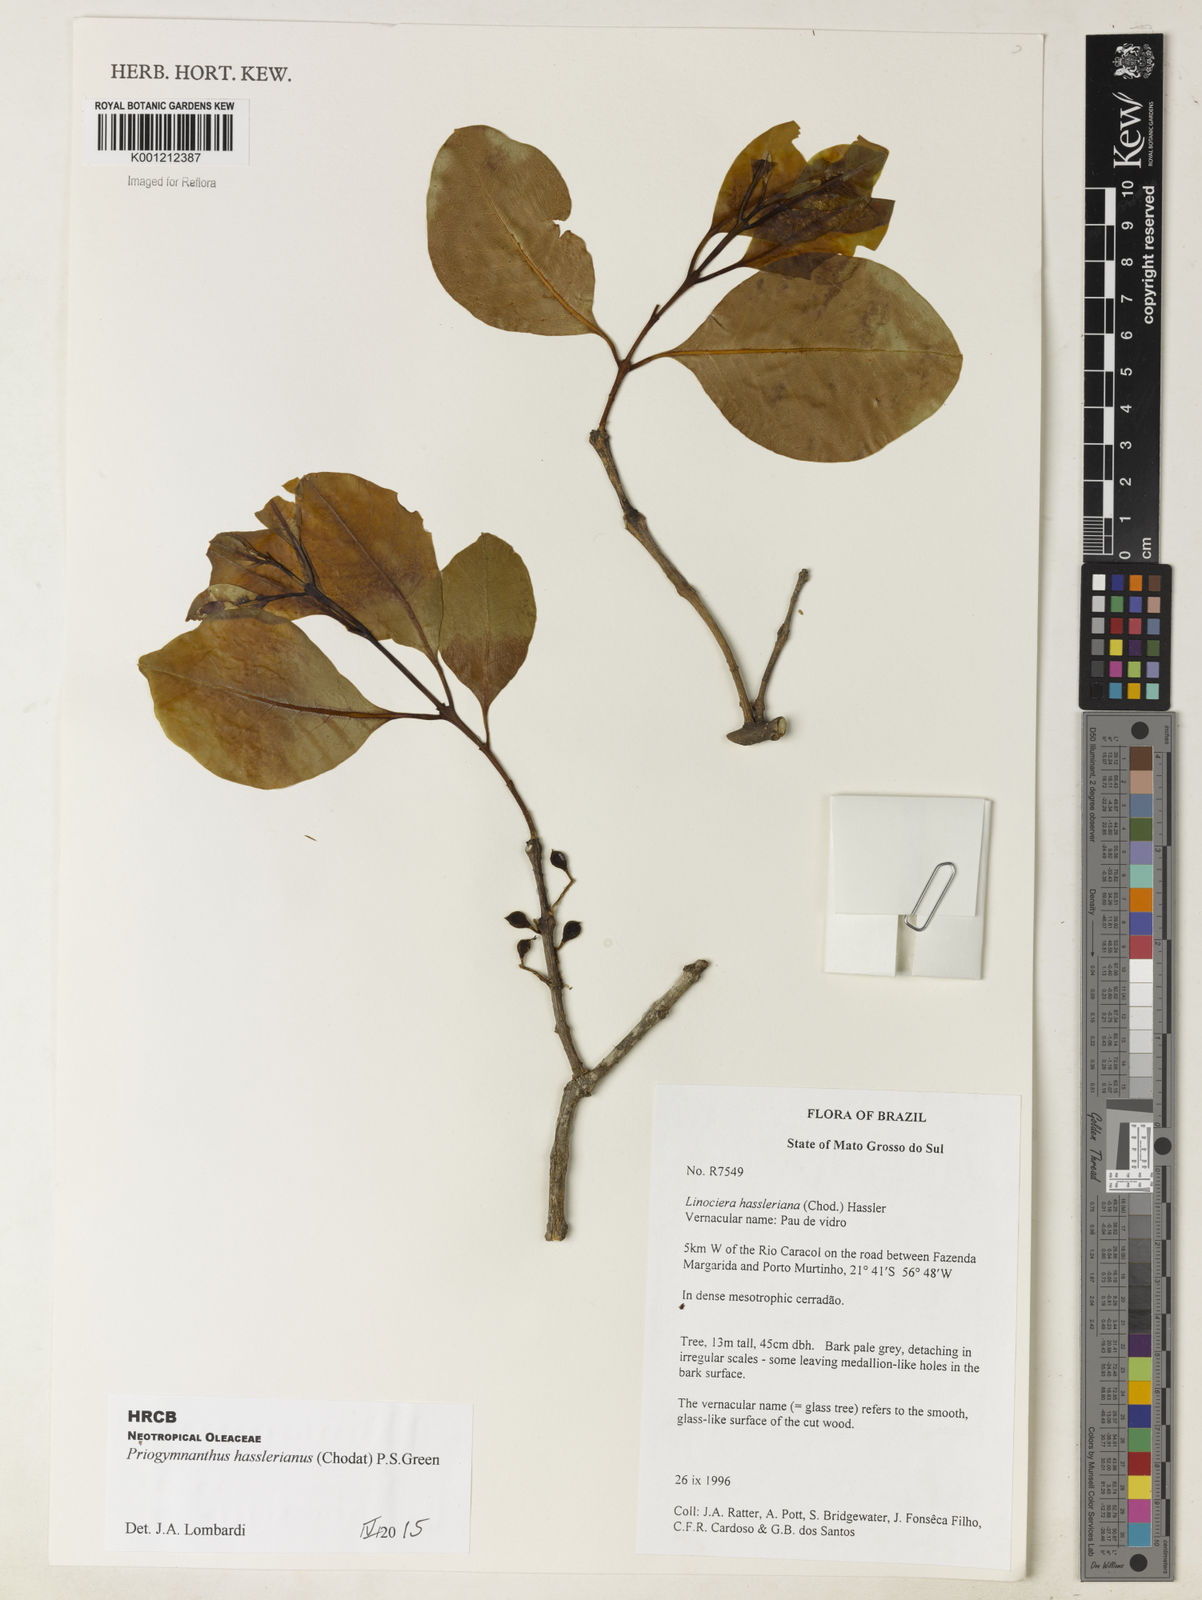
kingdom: Plantae
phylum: Tracheophyta
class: Magnoliopsida
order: Lamiales
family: Oleaceae
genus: Priogymnanthus
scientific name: Priogymnanthus hasslerianus
